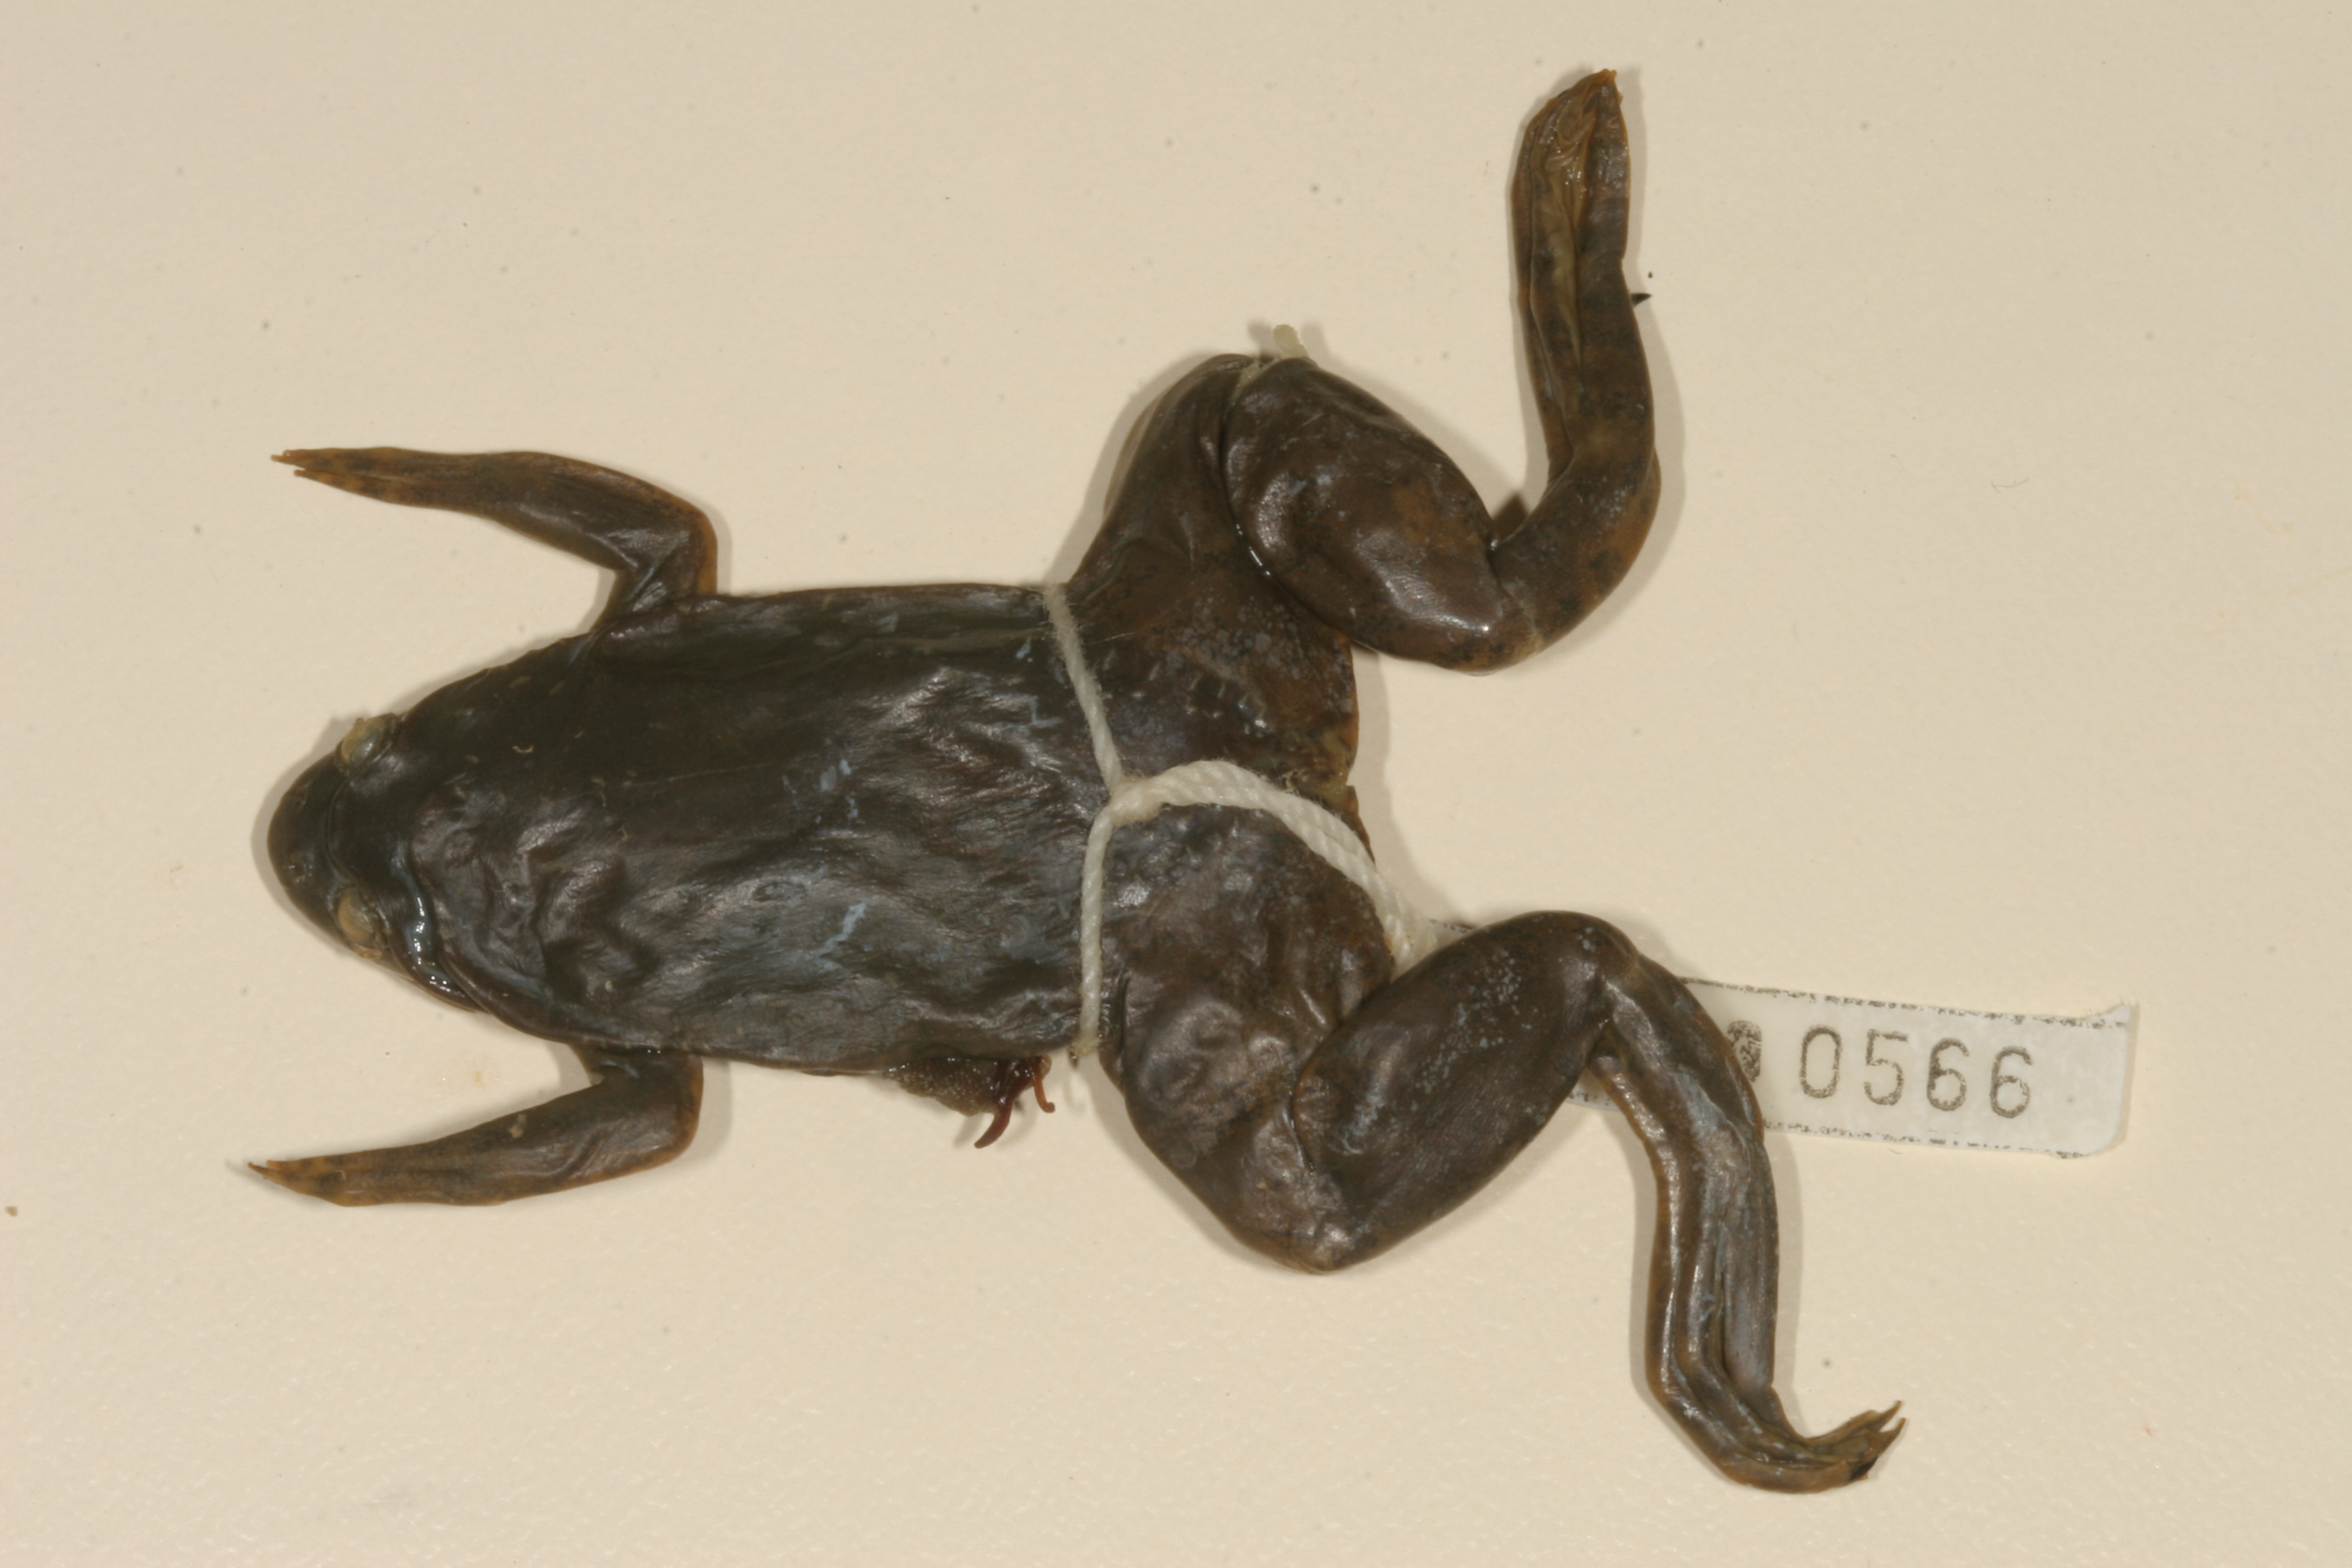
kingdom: Animalia
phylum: Chordata
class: Amphibia
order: Anura
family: Pipidae
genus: Xenopus
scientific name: Xenopus muelleri
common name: Muller's clawed frog
